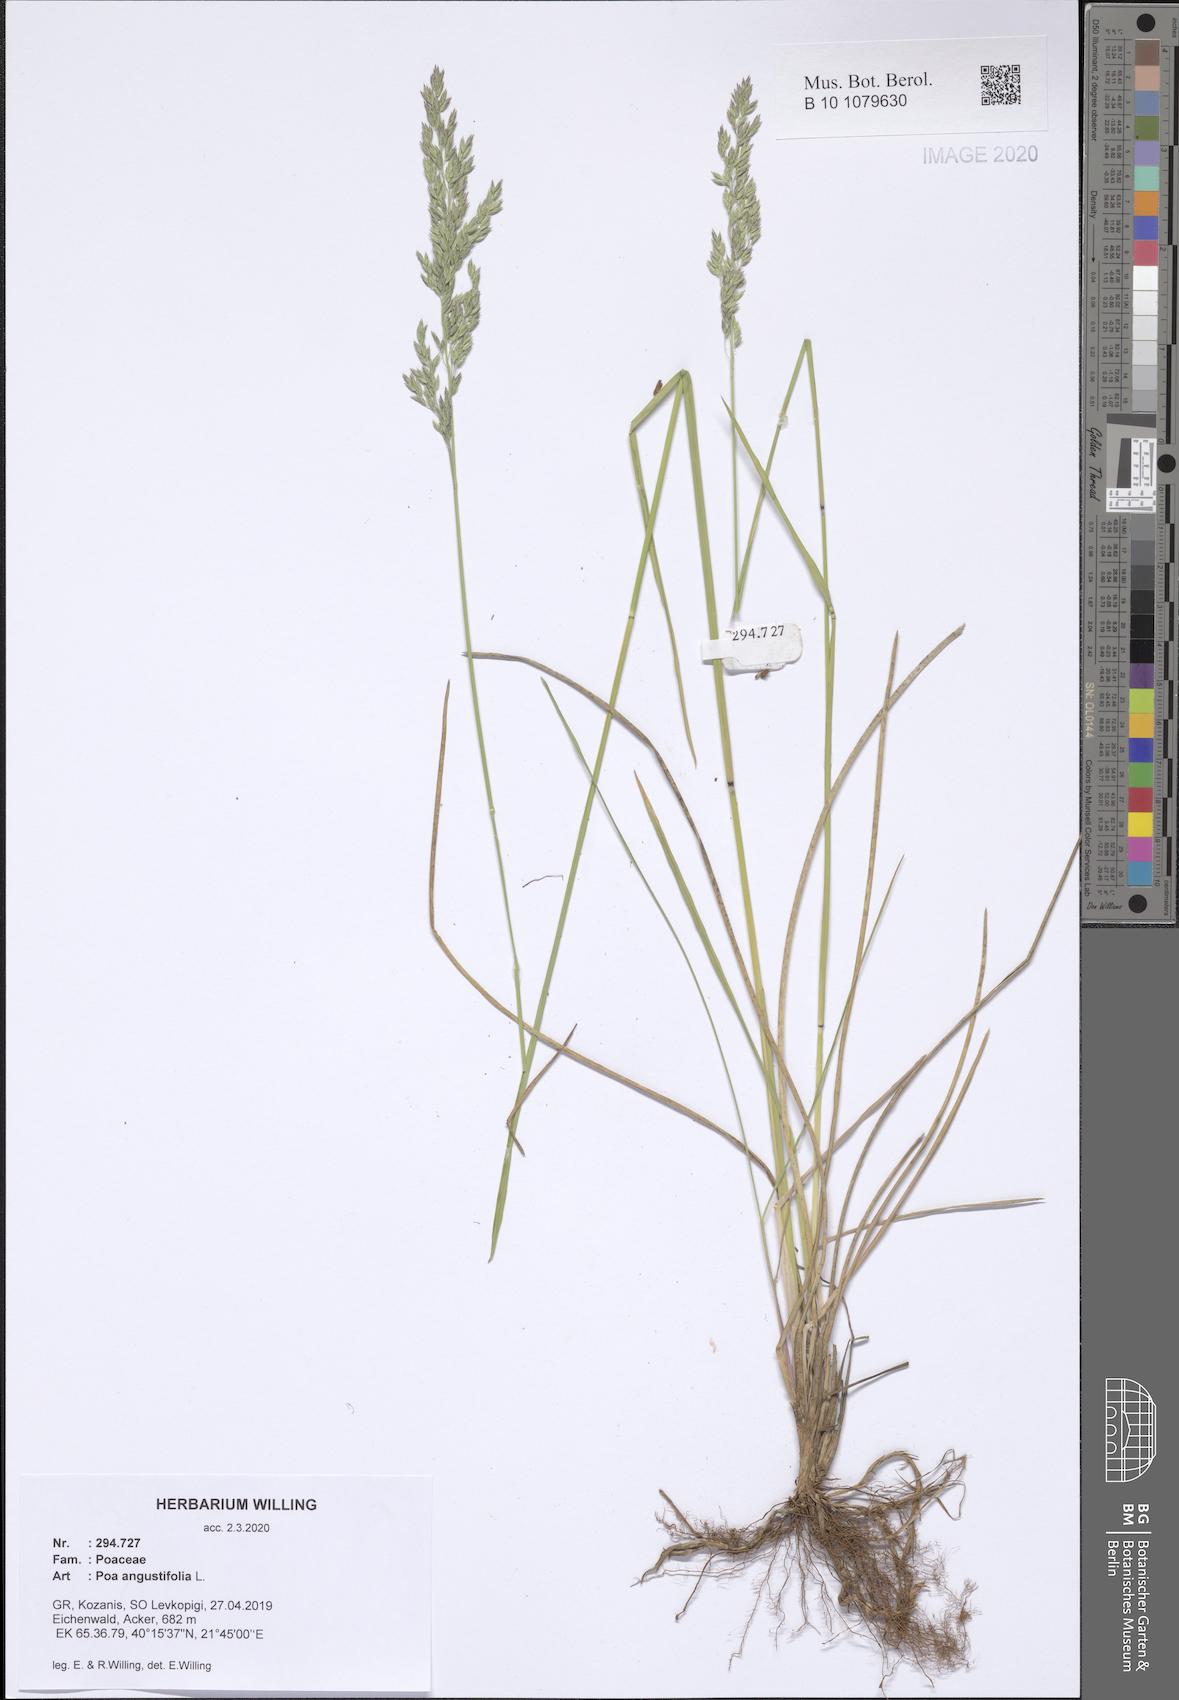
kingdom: Plantae
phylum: Tracheophyta
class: Liliopsida
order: Poales
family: Poaceae
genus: Poa
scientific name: Poa angustifolia
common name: Narrow-leaved meadow-grass
